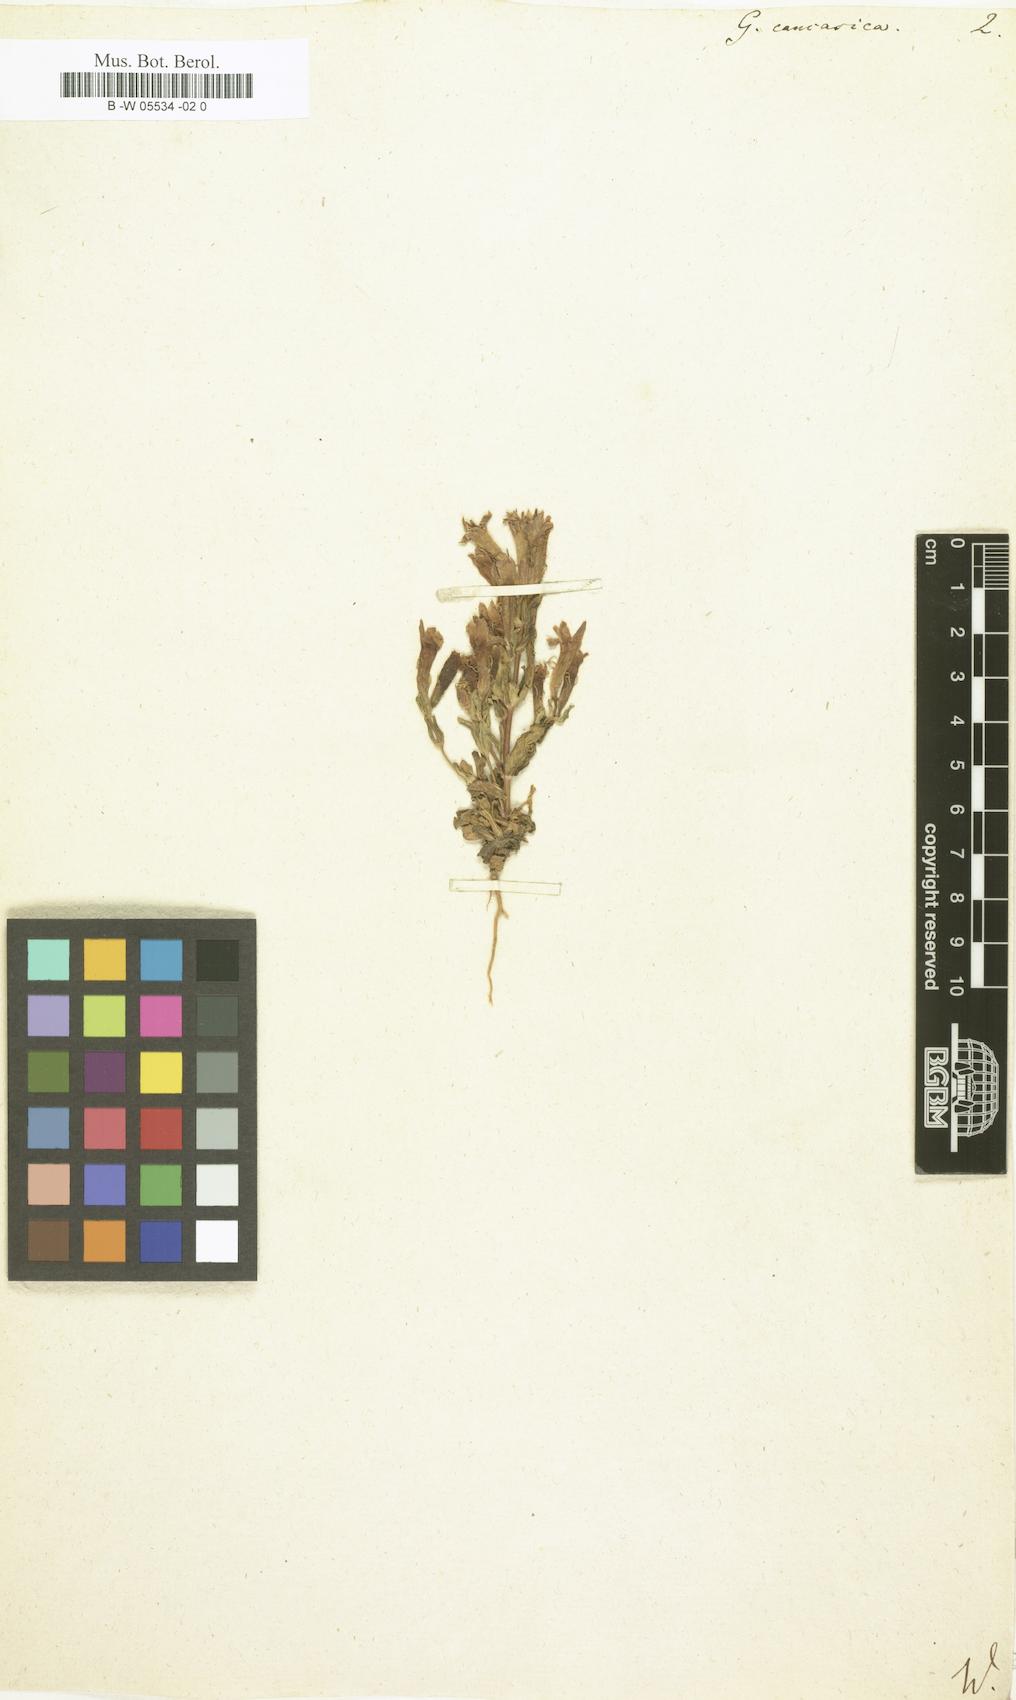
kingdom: Plantae
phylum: Tracheophyta
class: Magnoliopsida
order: Gentianales
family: Gentianaceae
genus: Gentianella
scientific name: Gentianella
